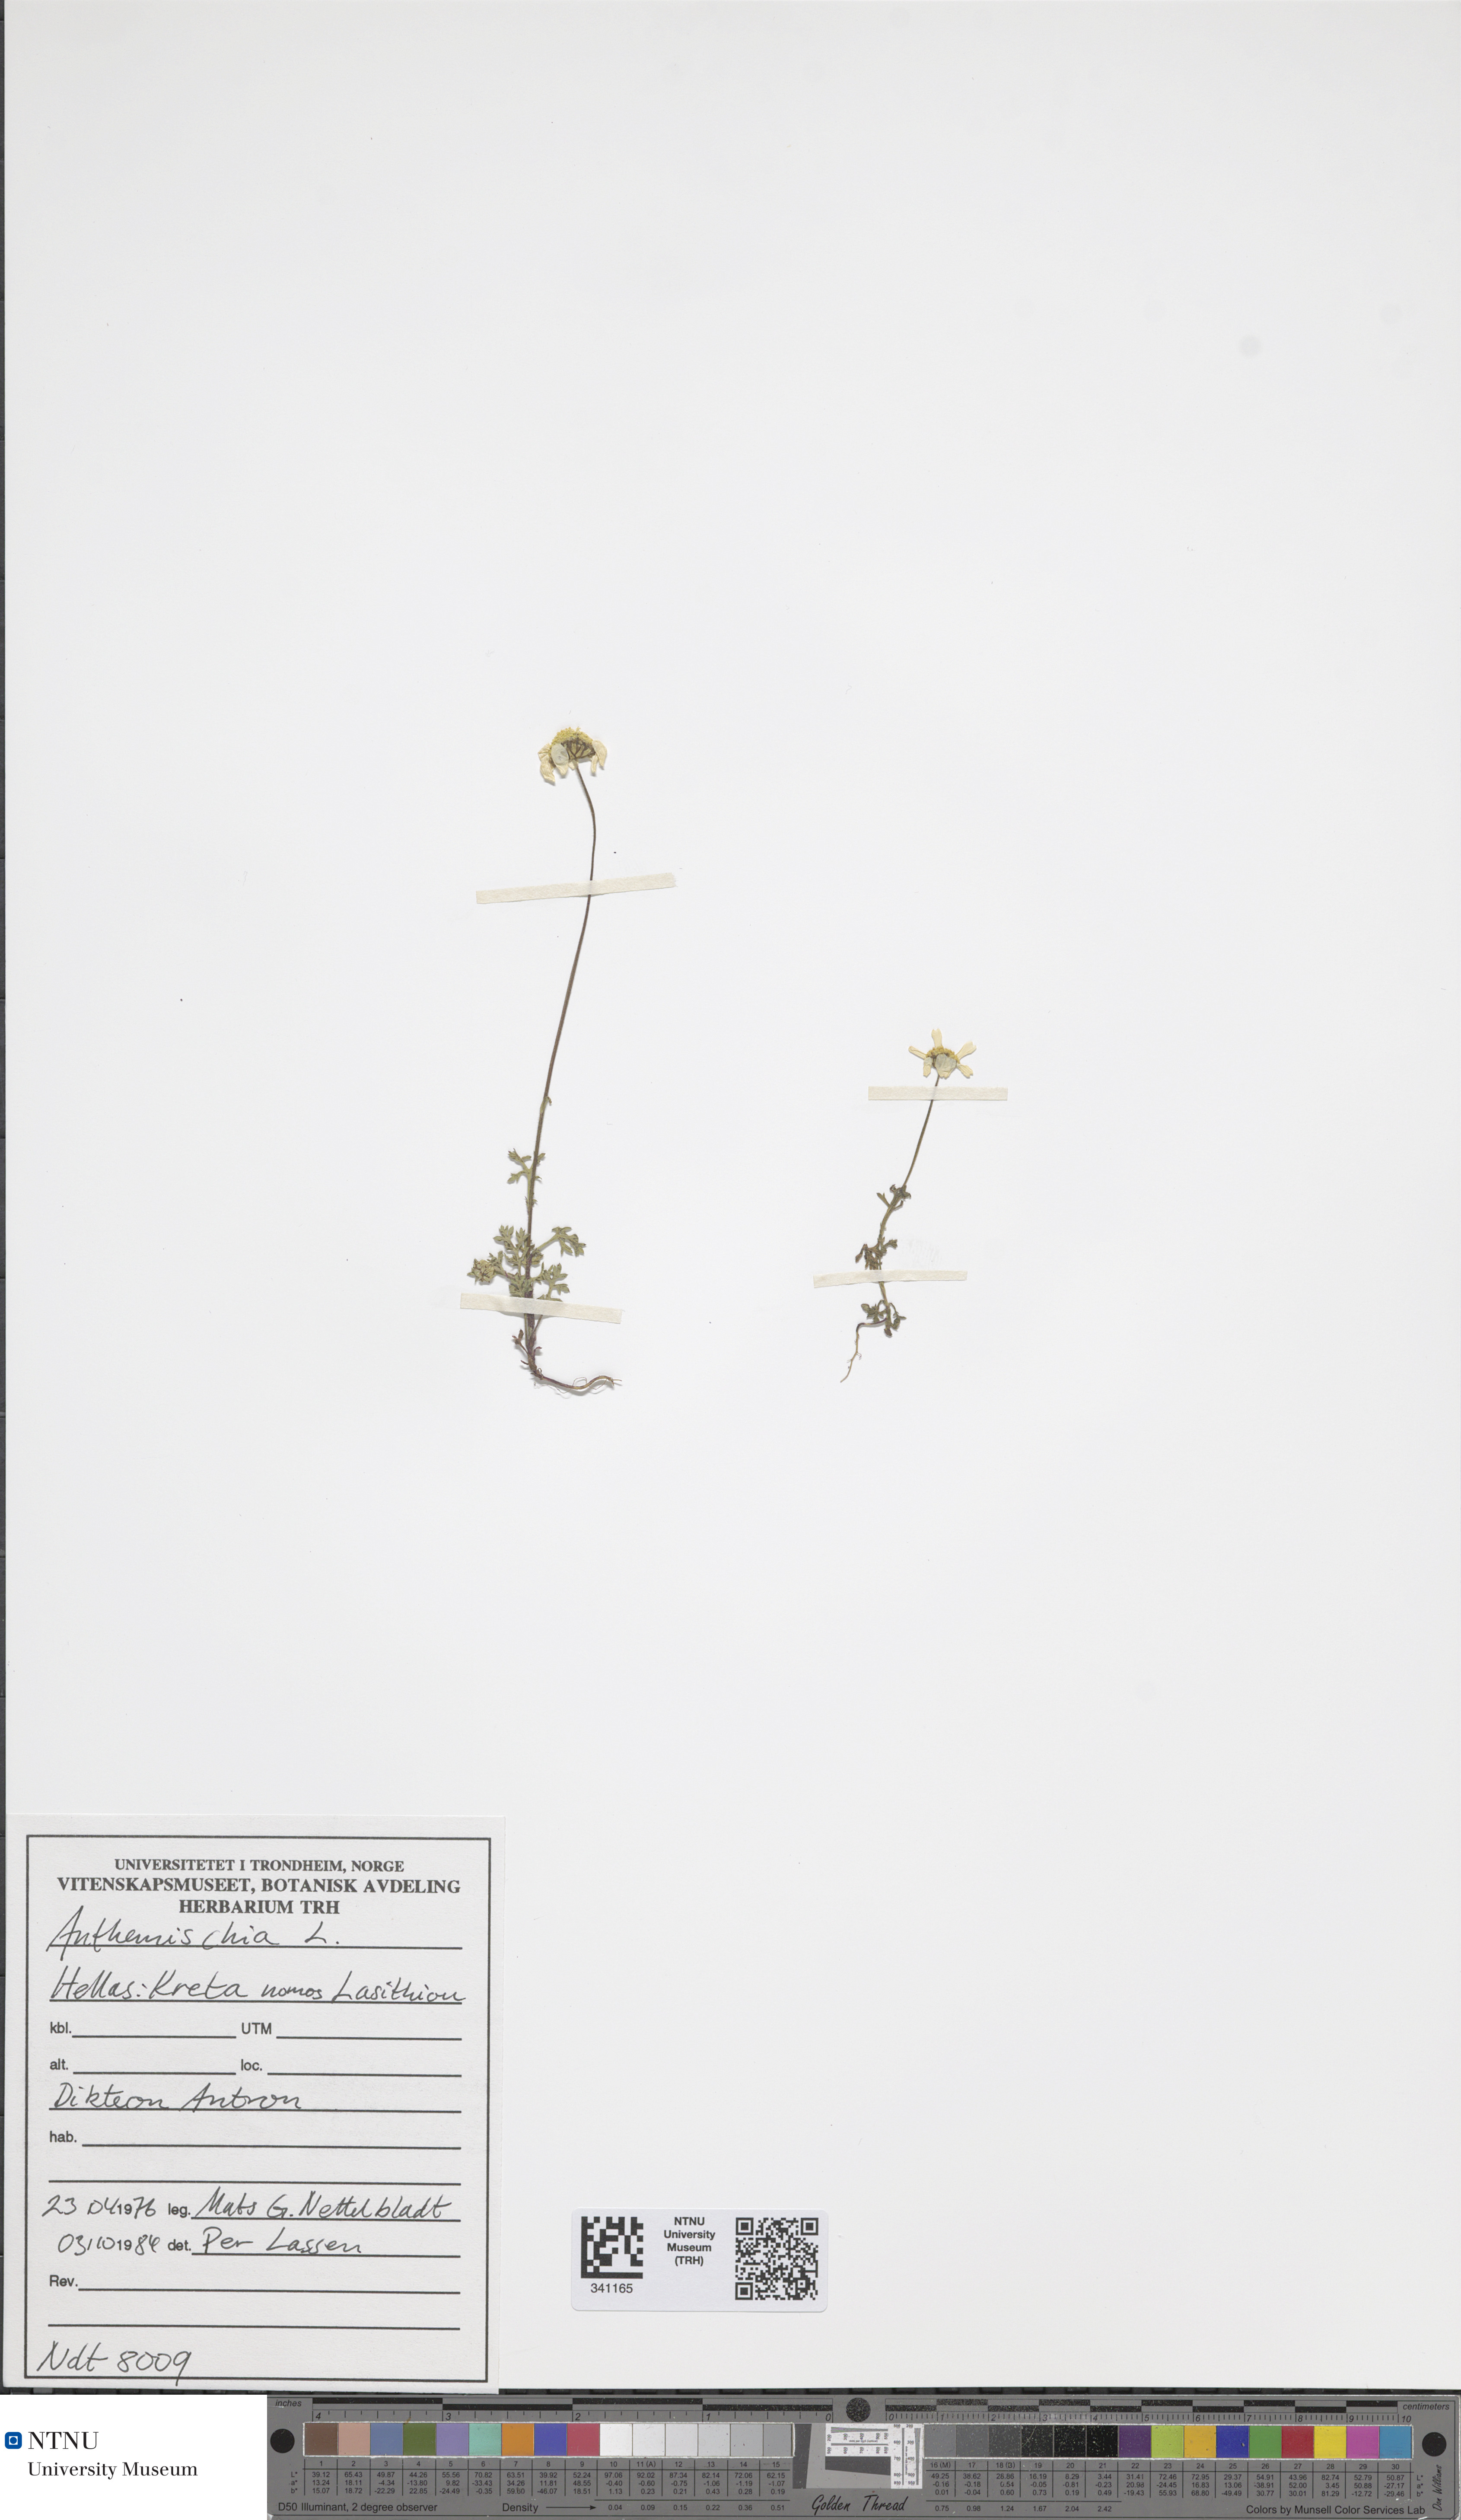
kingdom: Plantae
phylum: Tracheophyta
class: Magnoliopsida
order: Asterales
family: Asteraceae
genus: Anthemis
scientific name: Anthemis chia
